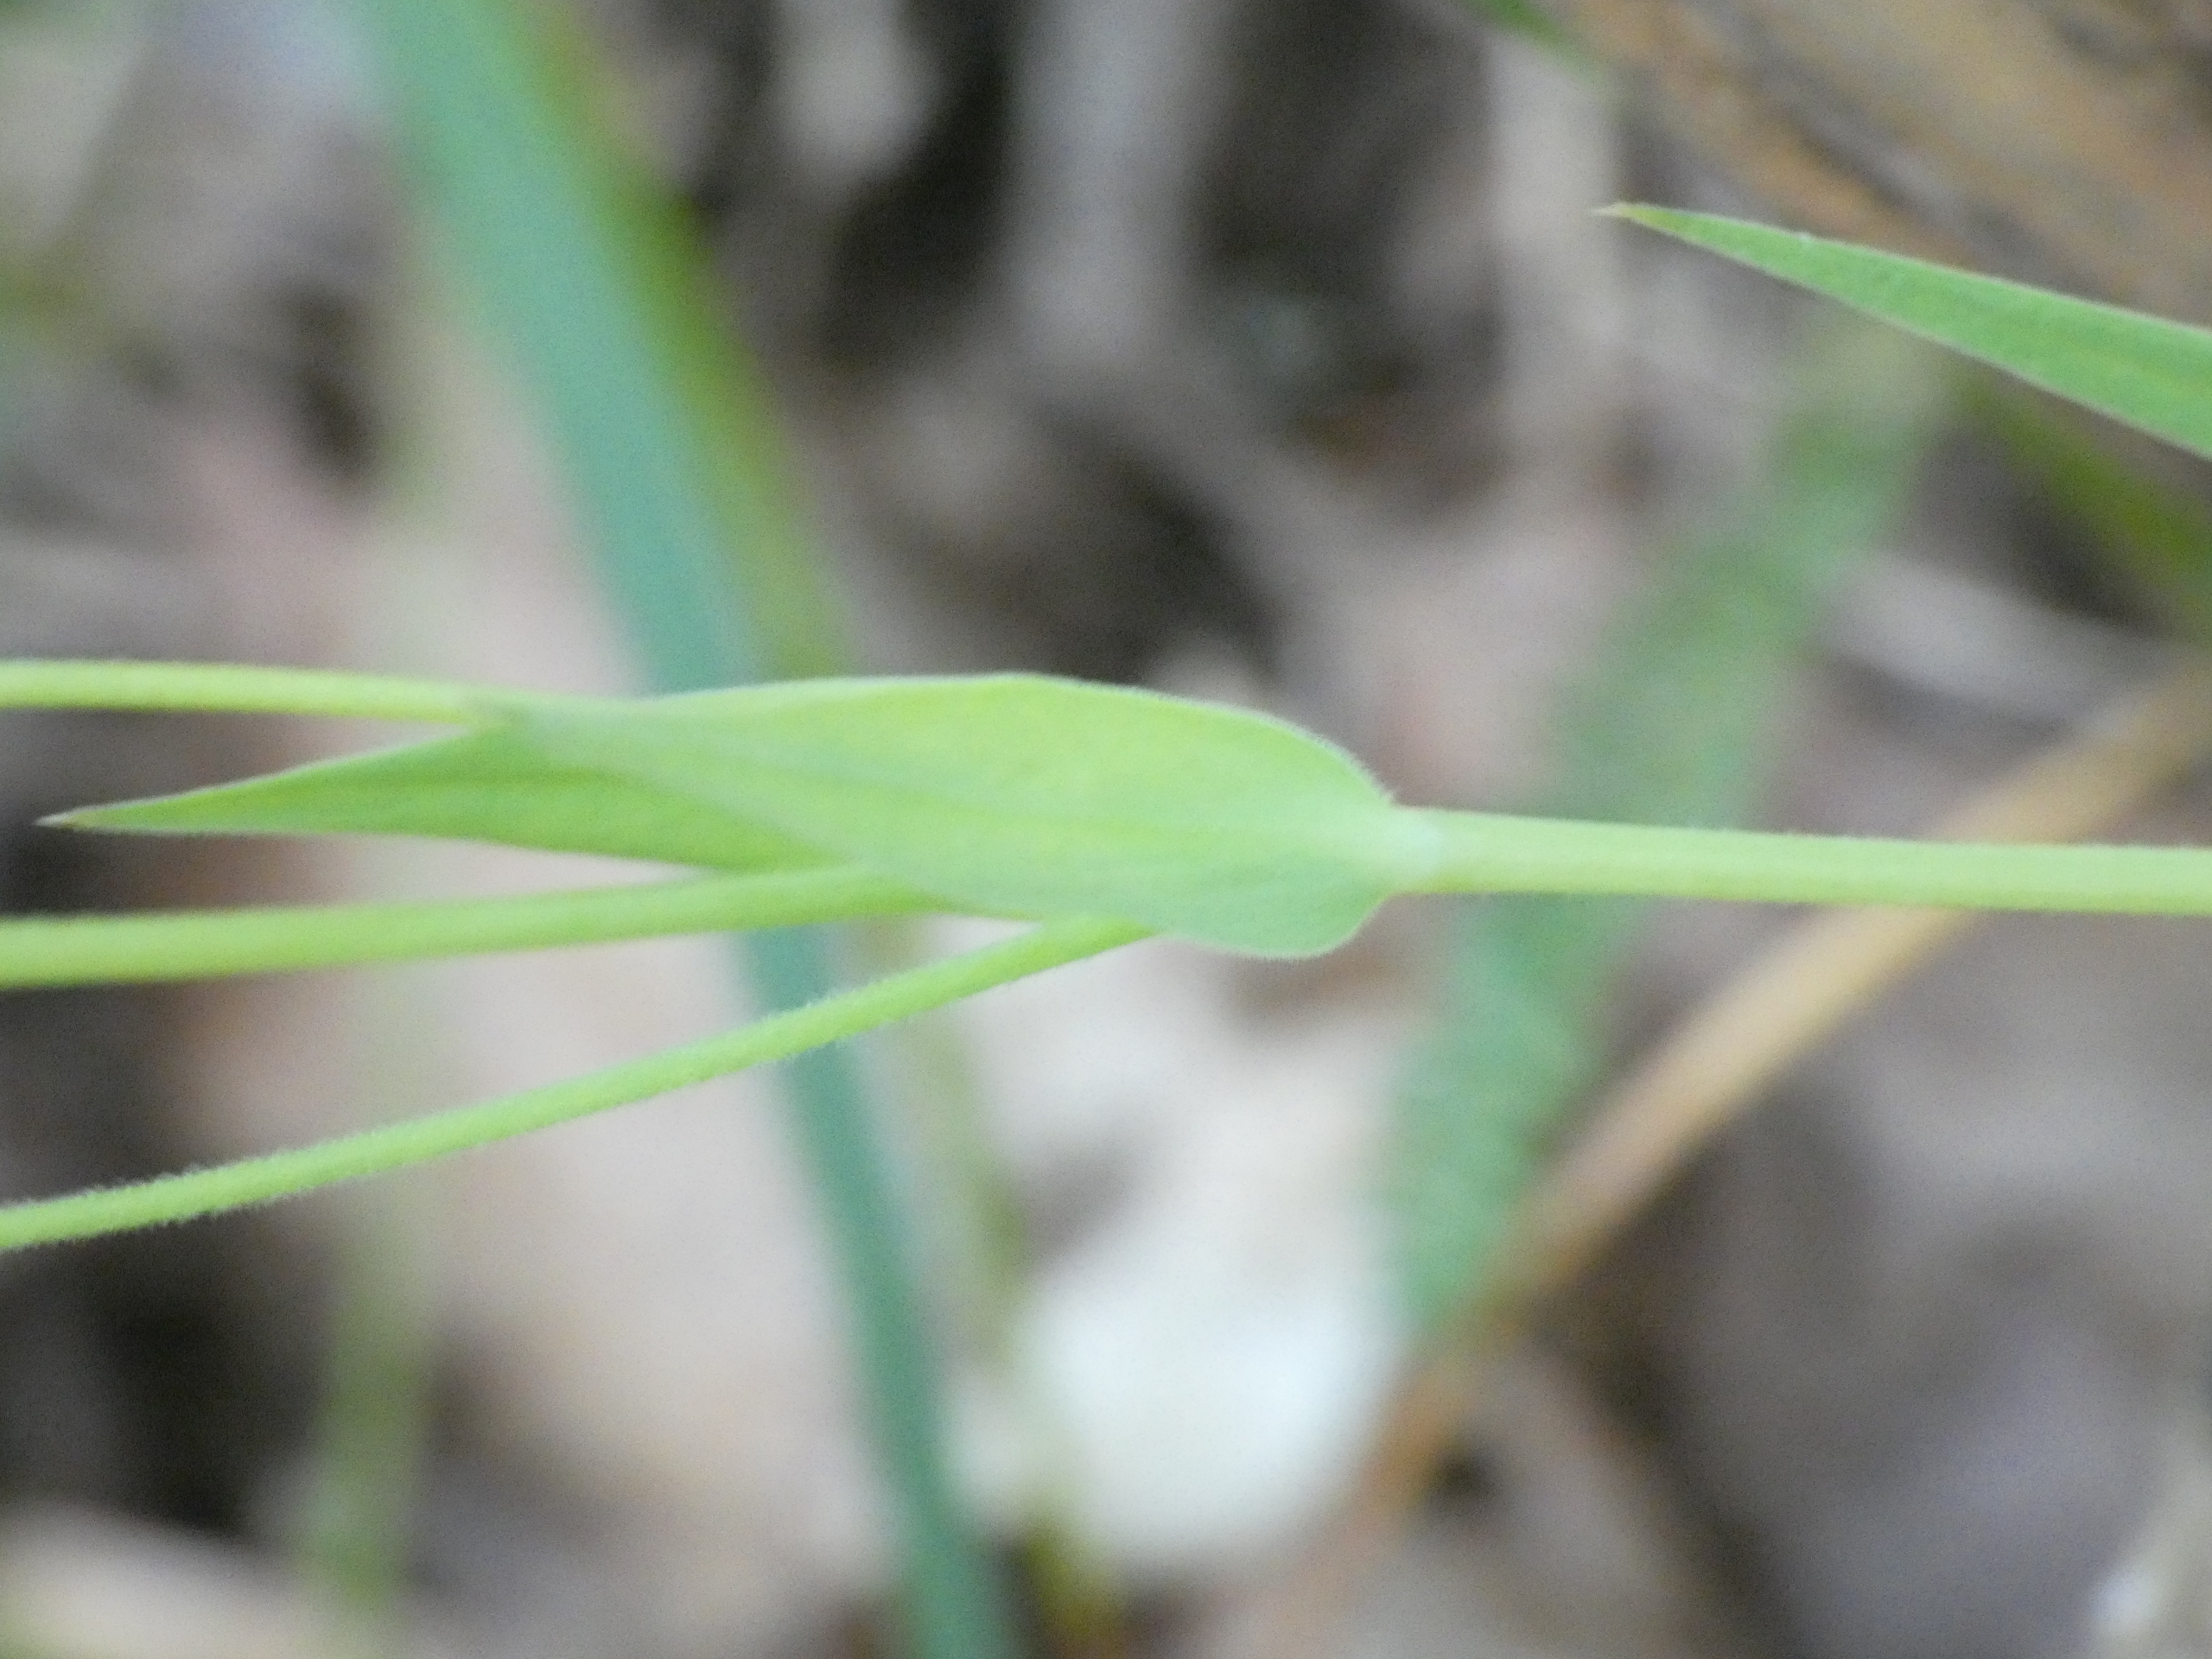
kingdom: Plantae
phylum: Tracheophyta
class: Magnoliopsida
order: Caryophyllales
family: Caryophyllaceae
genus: Rabelera
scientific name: Rabelera holostea
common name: Stor fladstjerne
